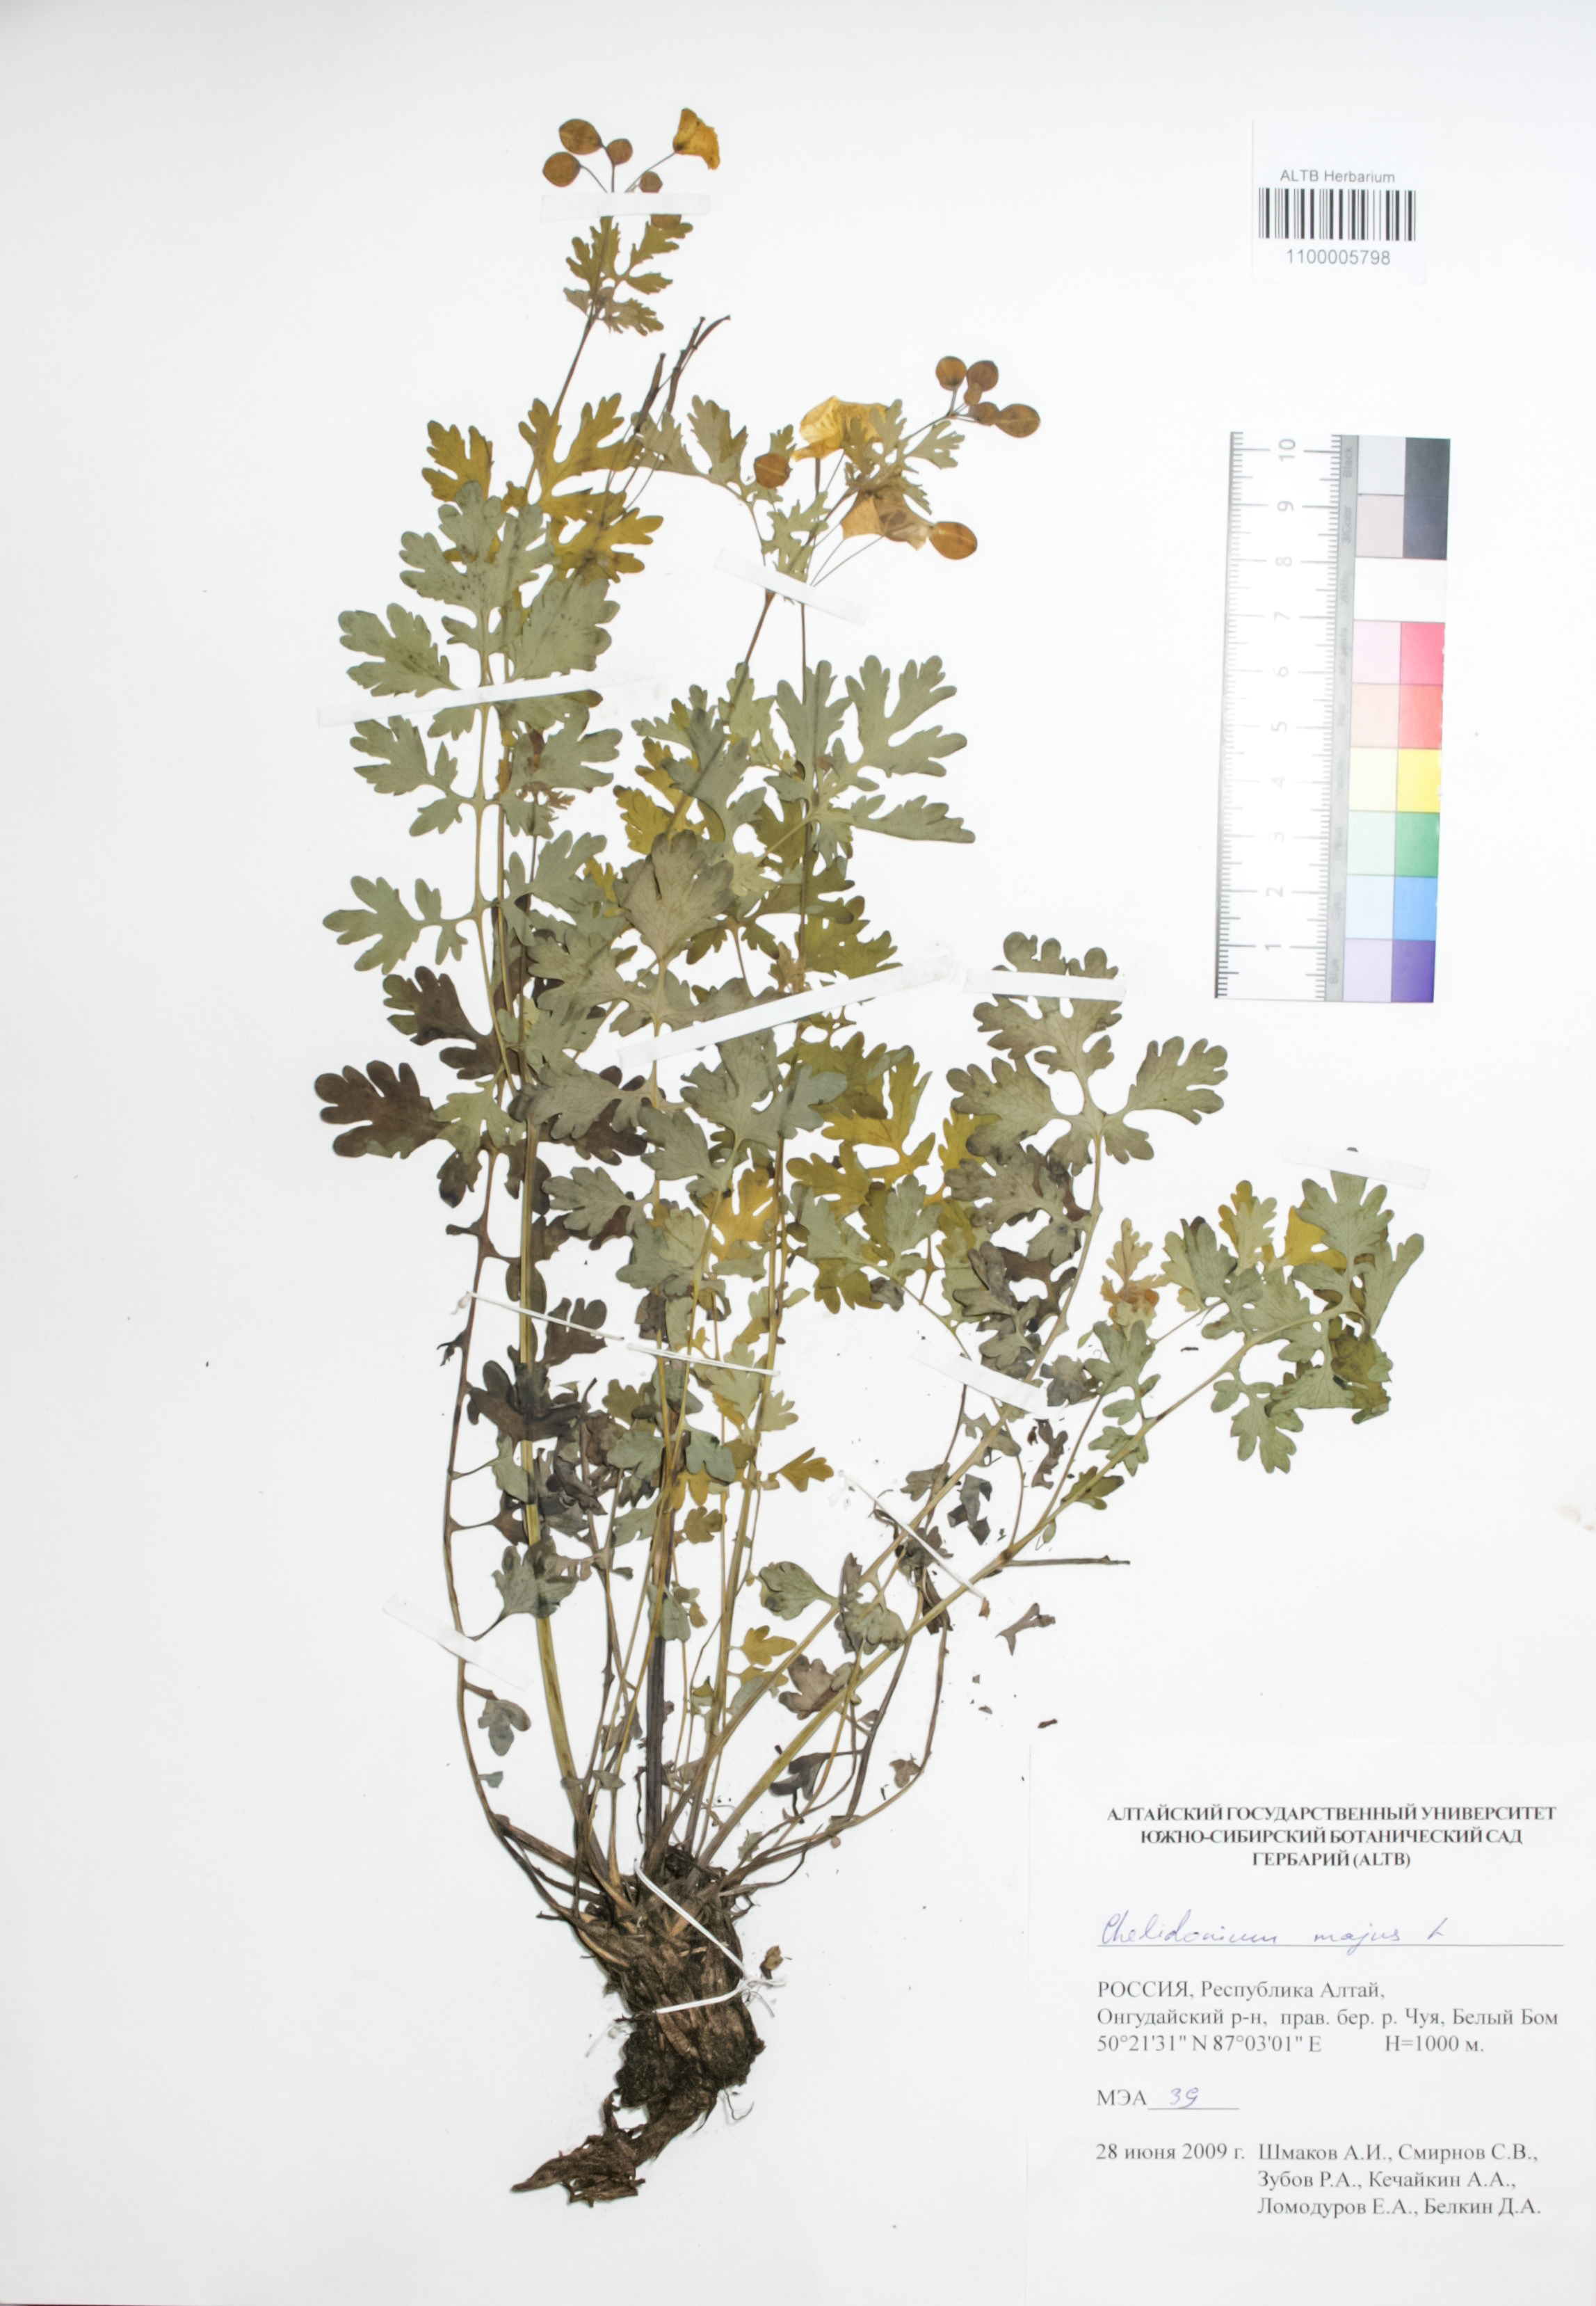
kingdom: Plantae
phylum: Tracheophyta
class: Magnoliopsida
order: Ranunculales
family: Papaveraceae
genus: Chelidonium
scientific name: Chelidonium majus
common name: Greater celandine
